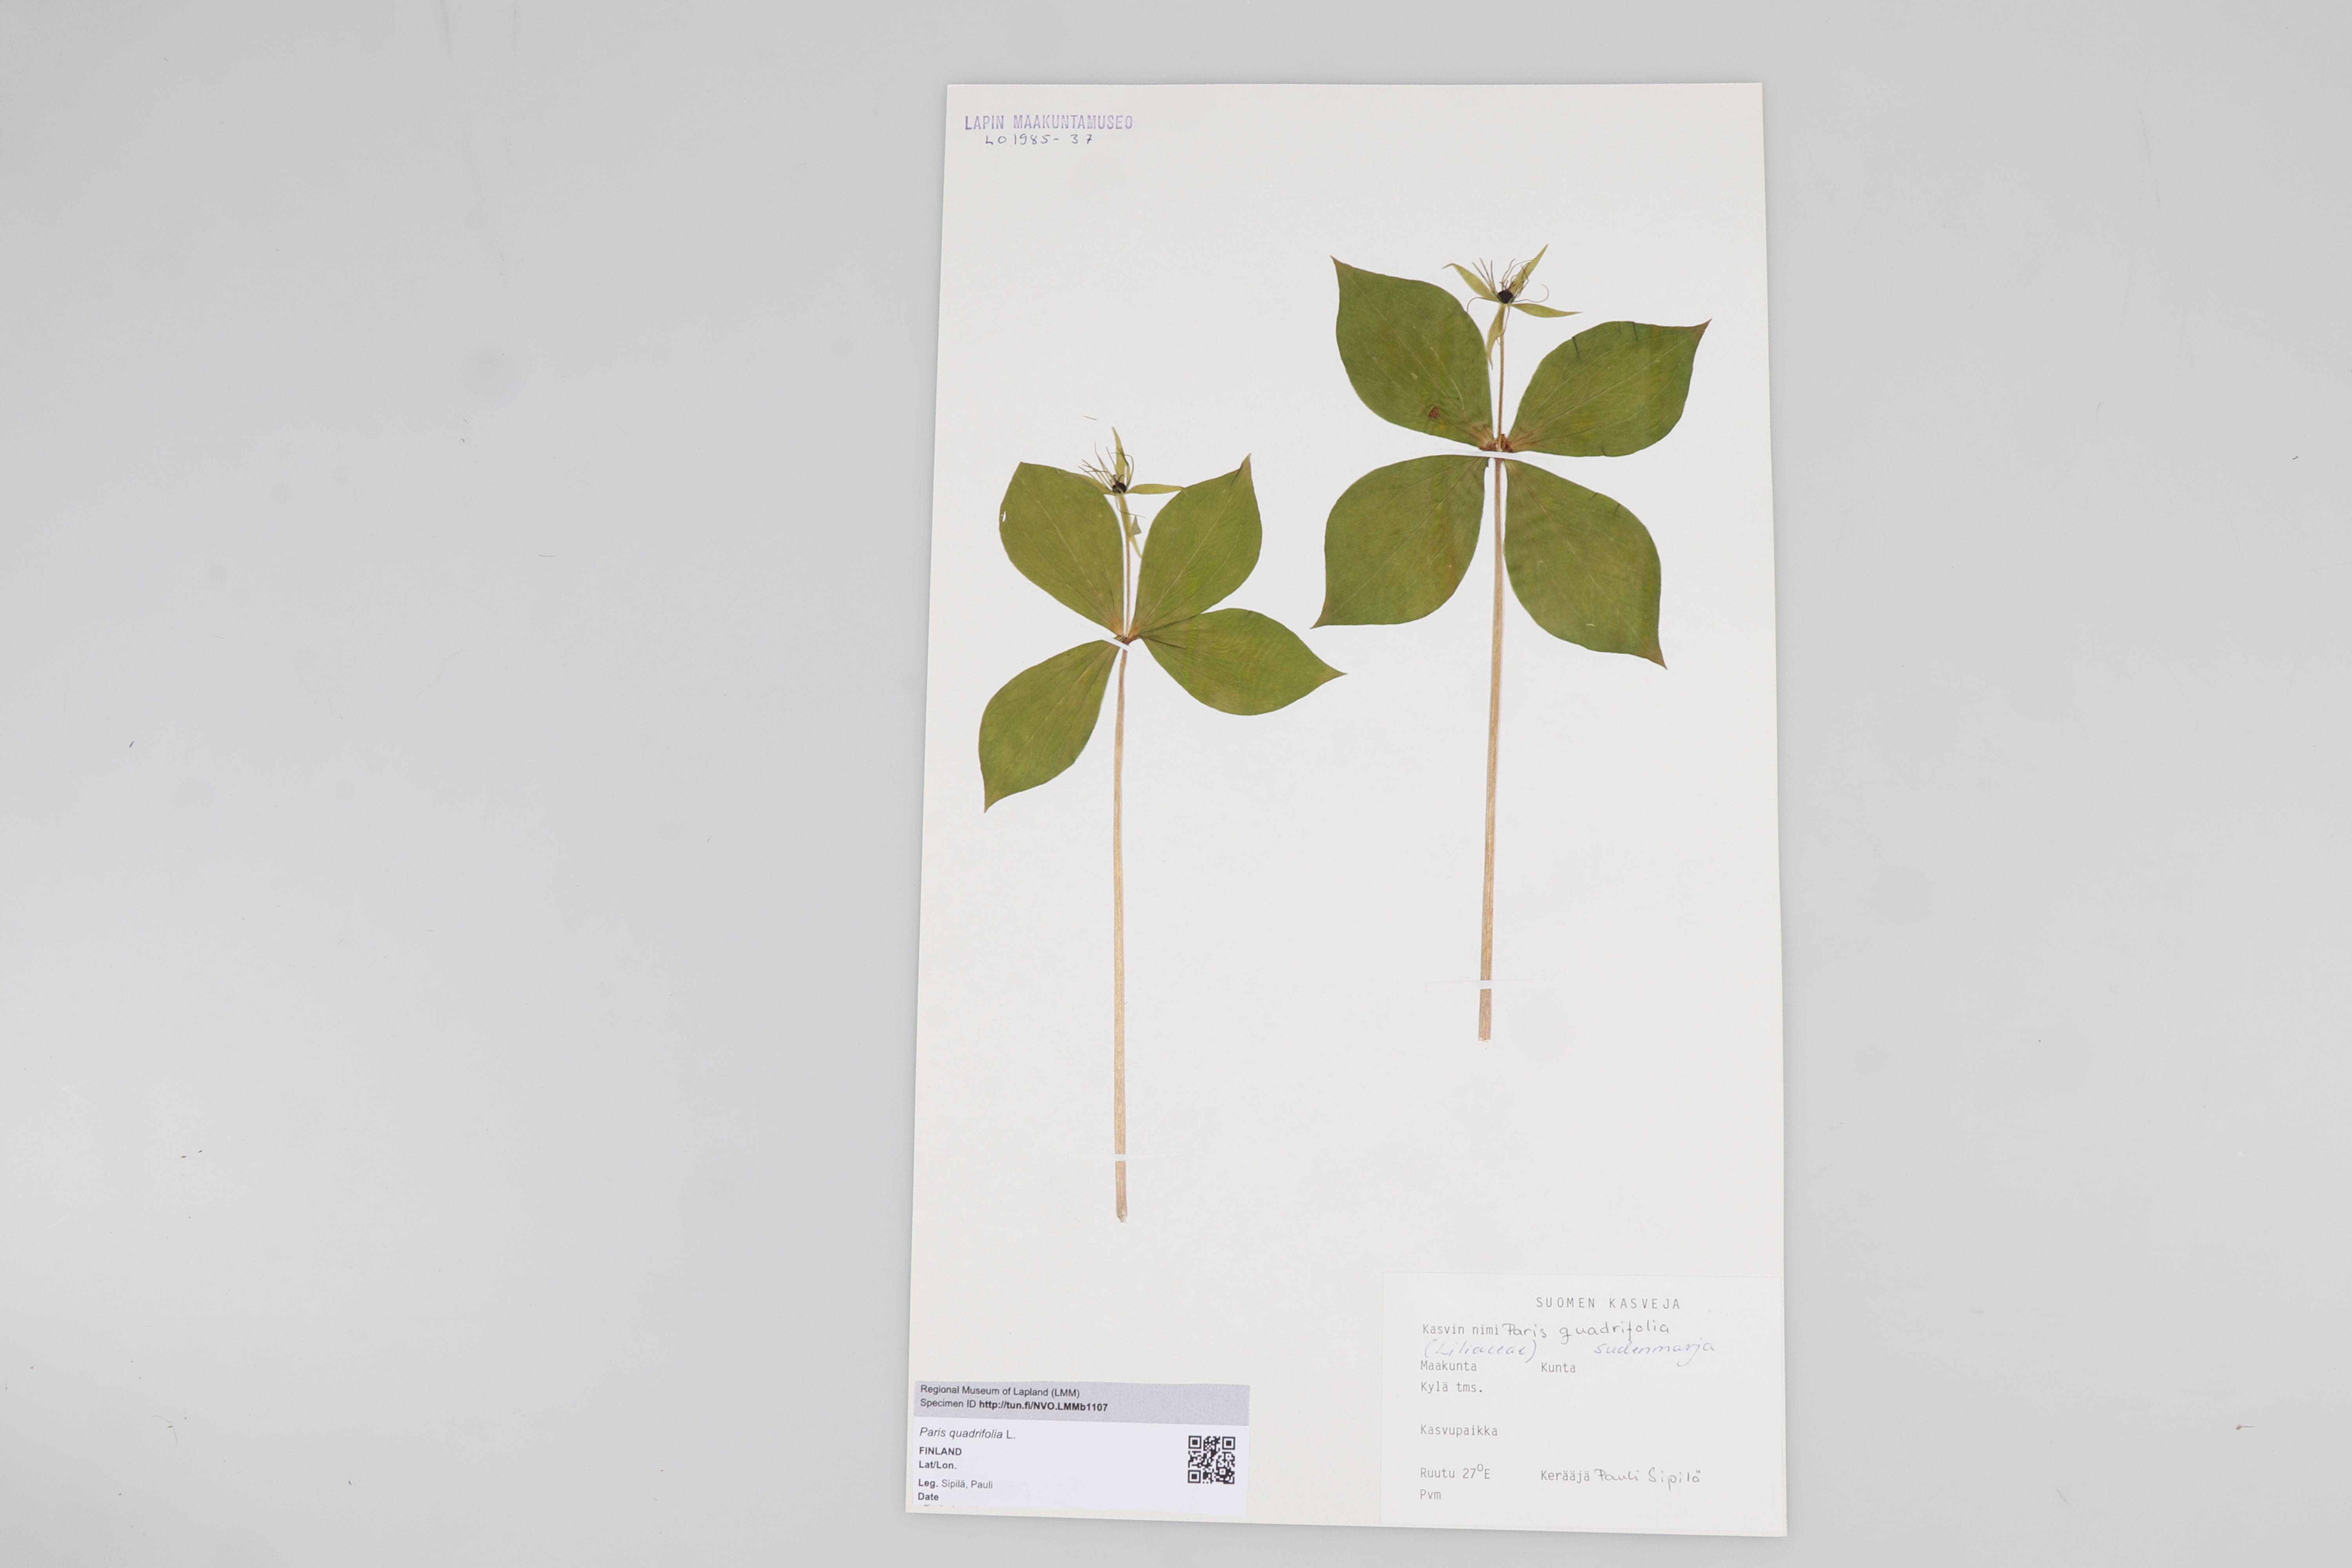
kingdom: Plantae
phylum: Tracheophyta
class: Liliopsida
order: Liliales
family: Melanthiaceae
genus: Paris
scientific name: Paris quadrifolia
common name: Herb-paris
